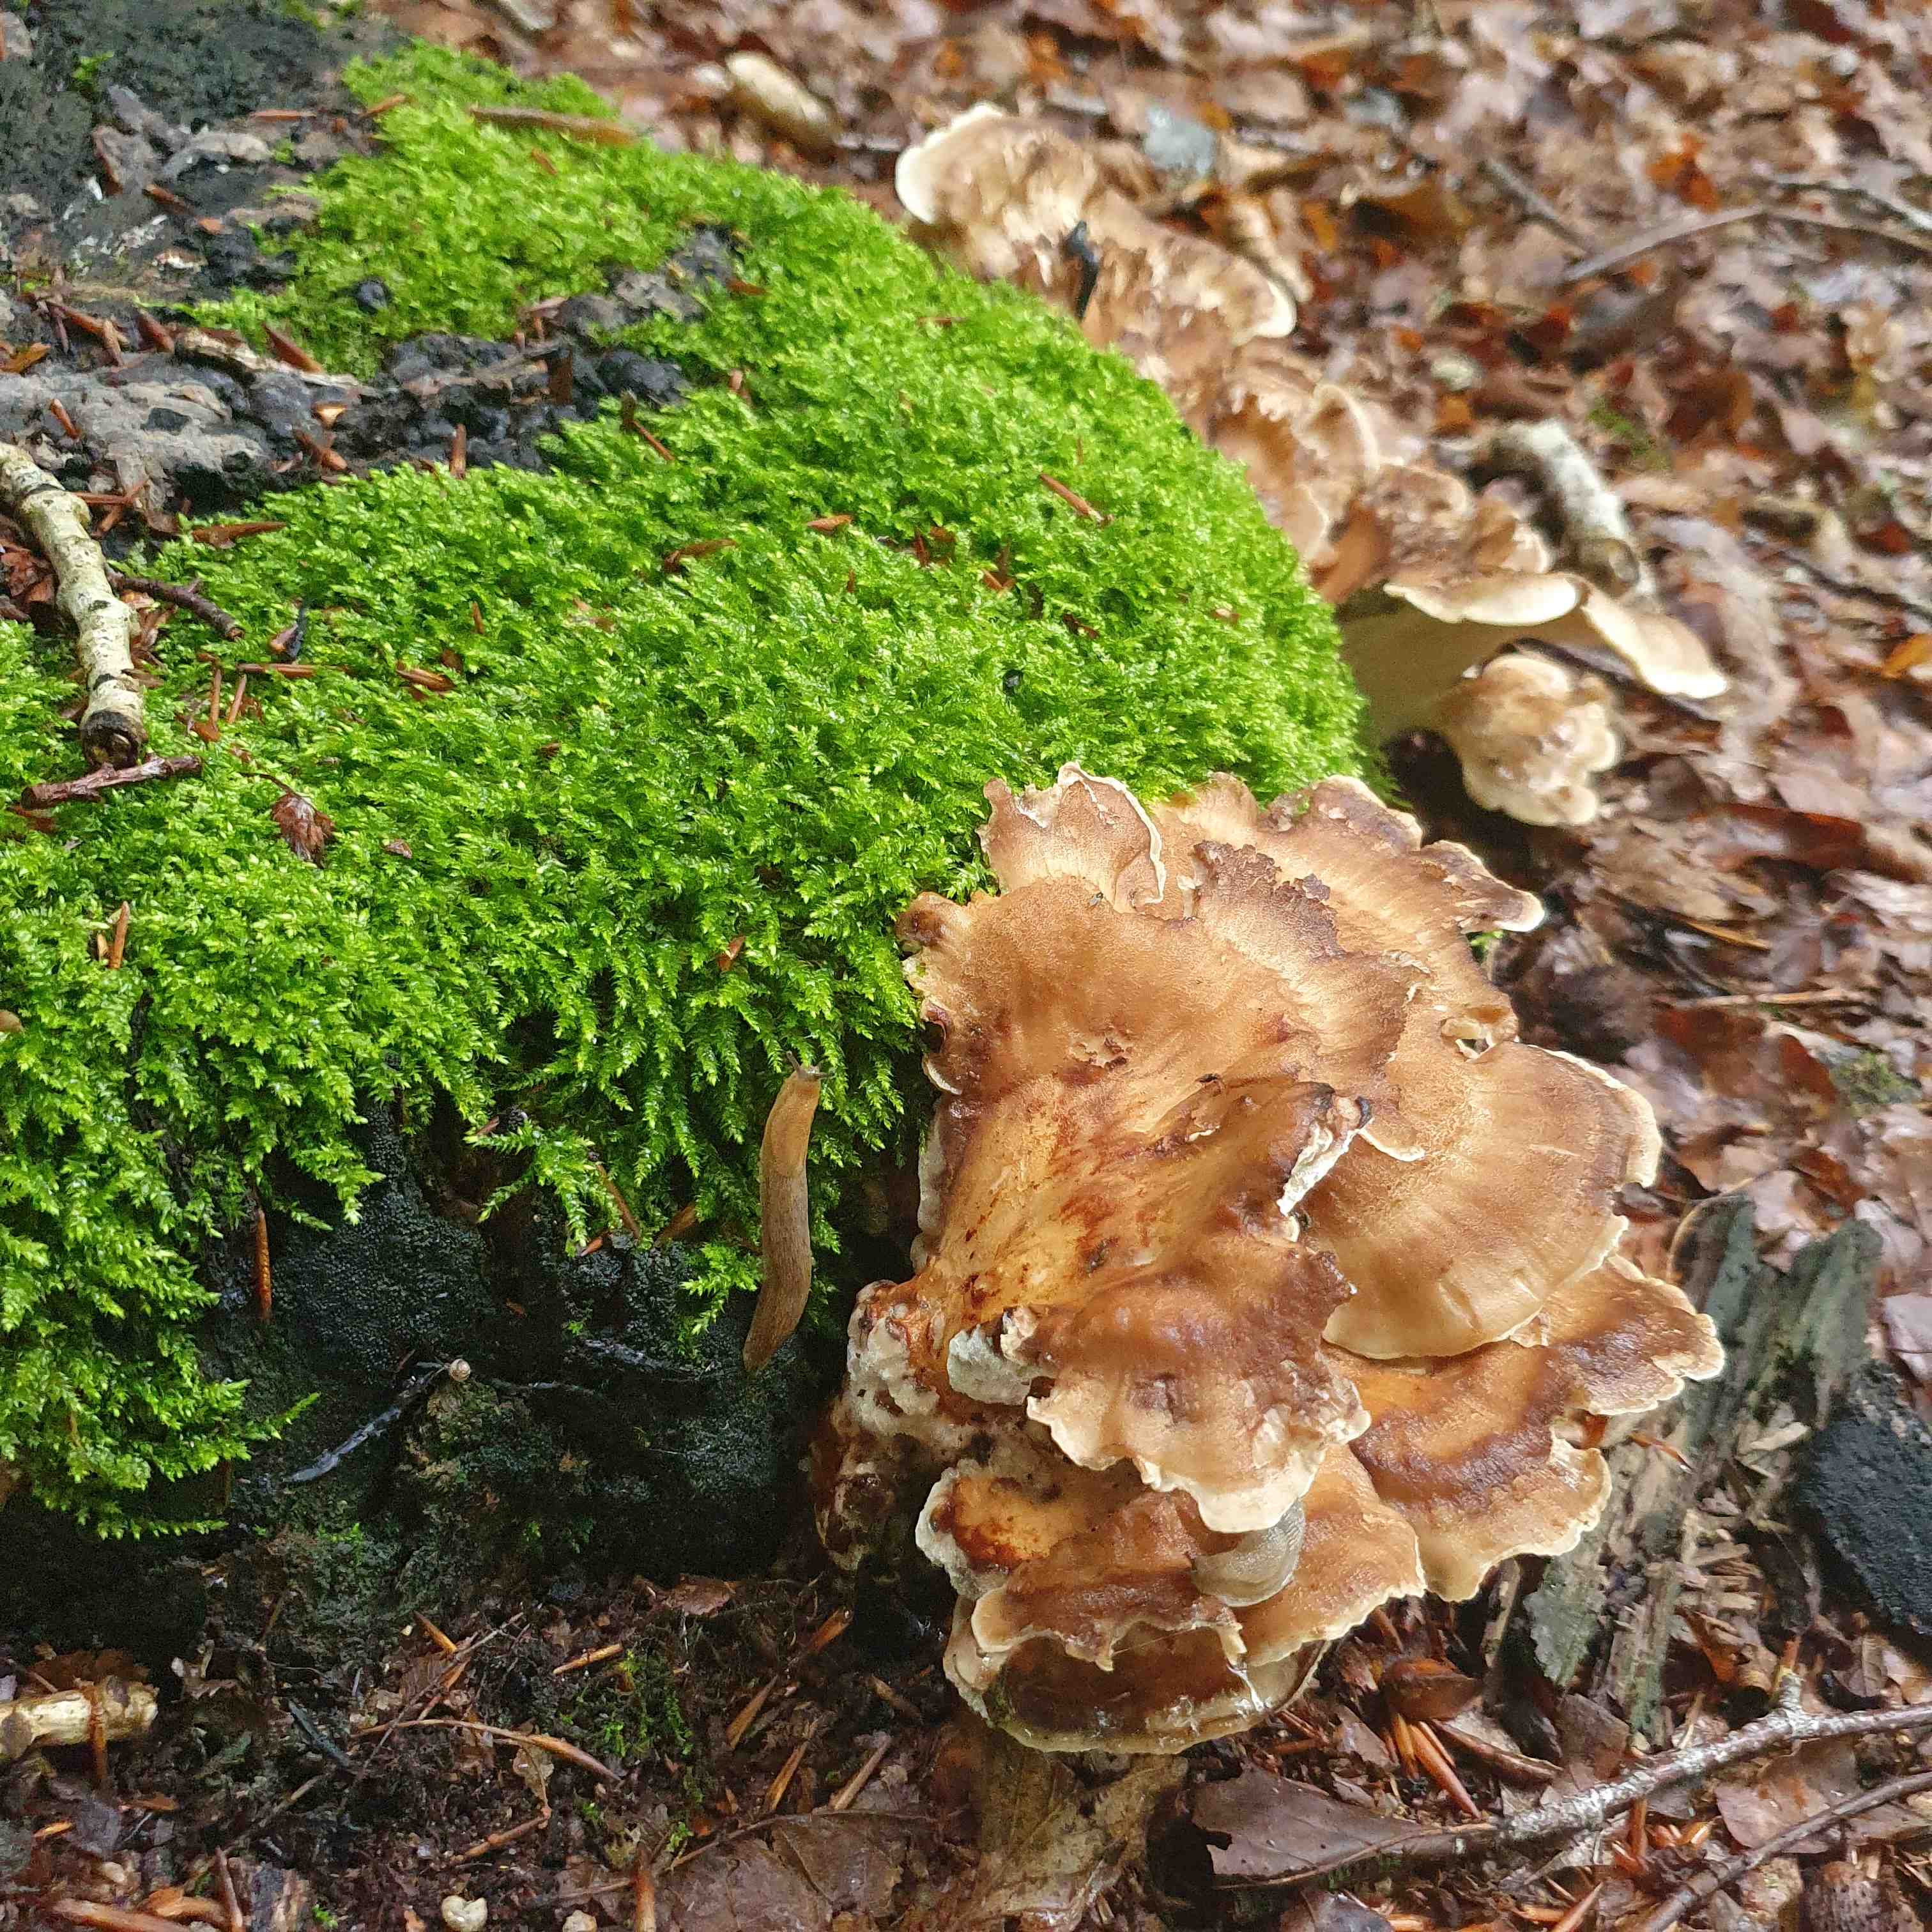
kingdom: Fungi
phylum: Basidiomycota
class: Agaricomycetes
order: Polyporales
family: Meripilaceae
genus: Meripilus
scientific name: Meripilus giganteus
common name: kæmpeporesvamp
